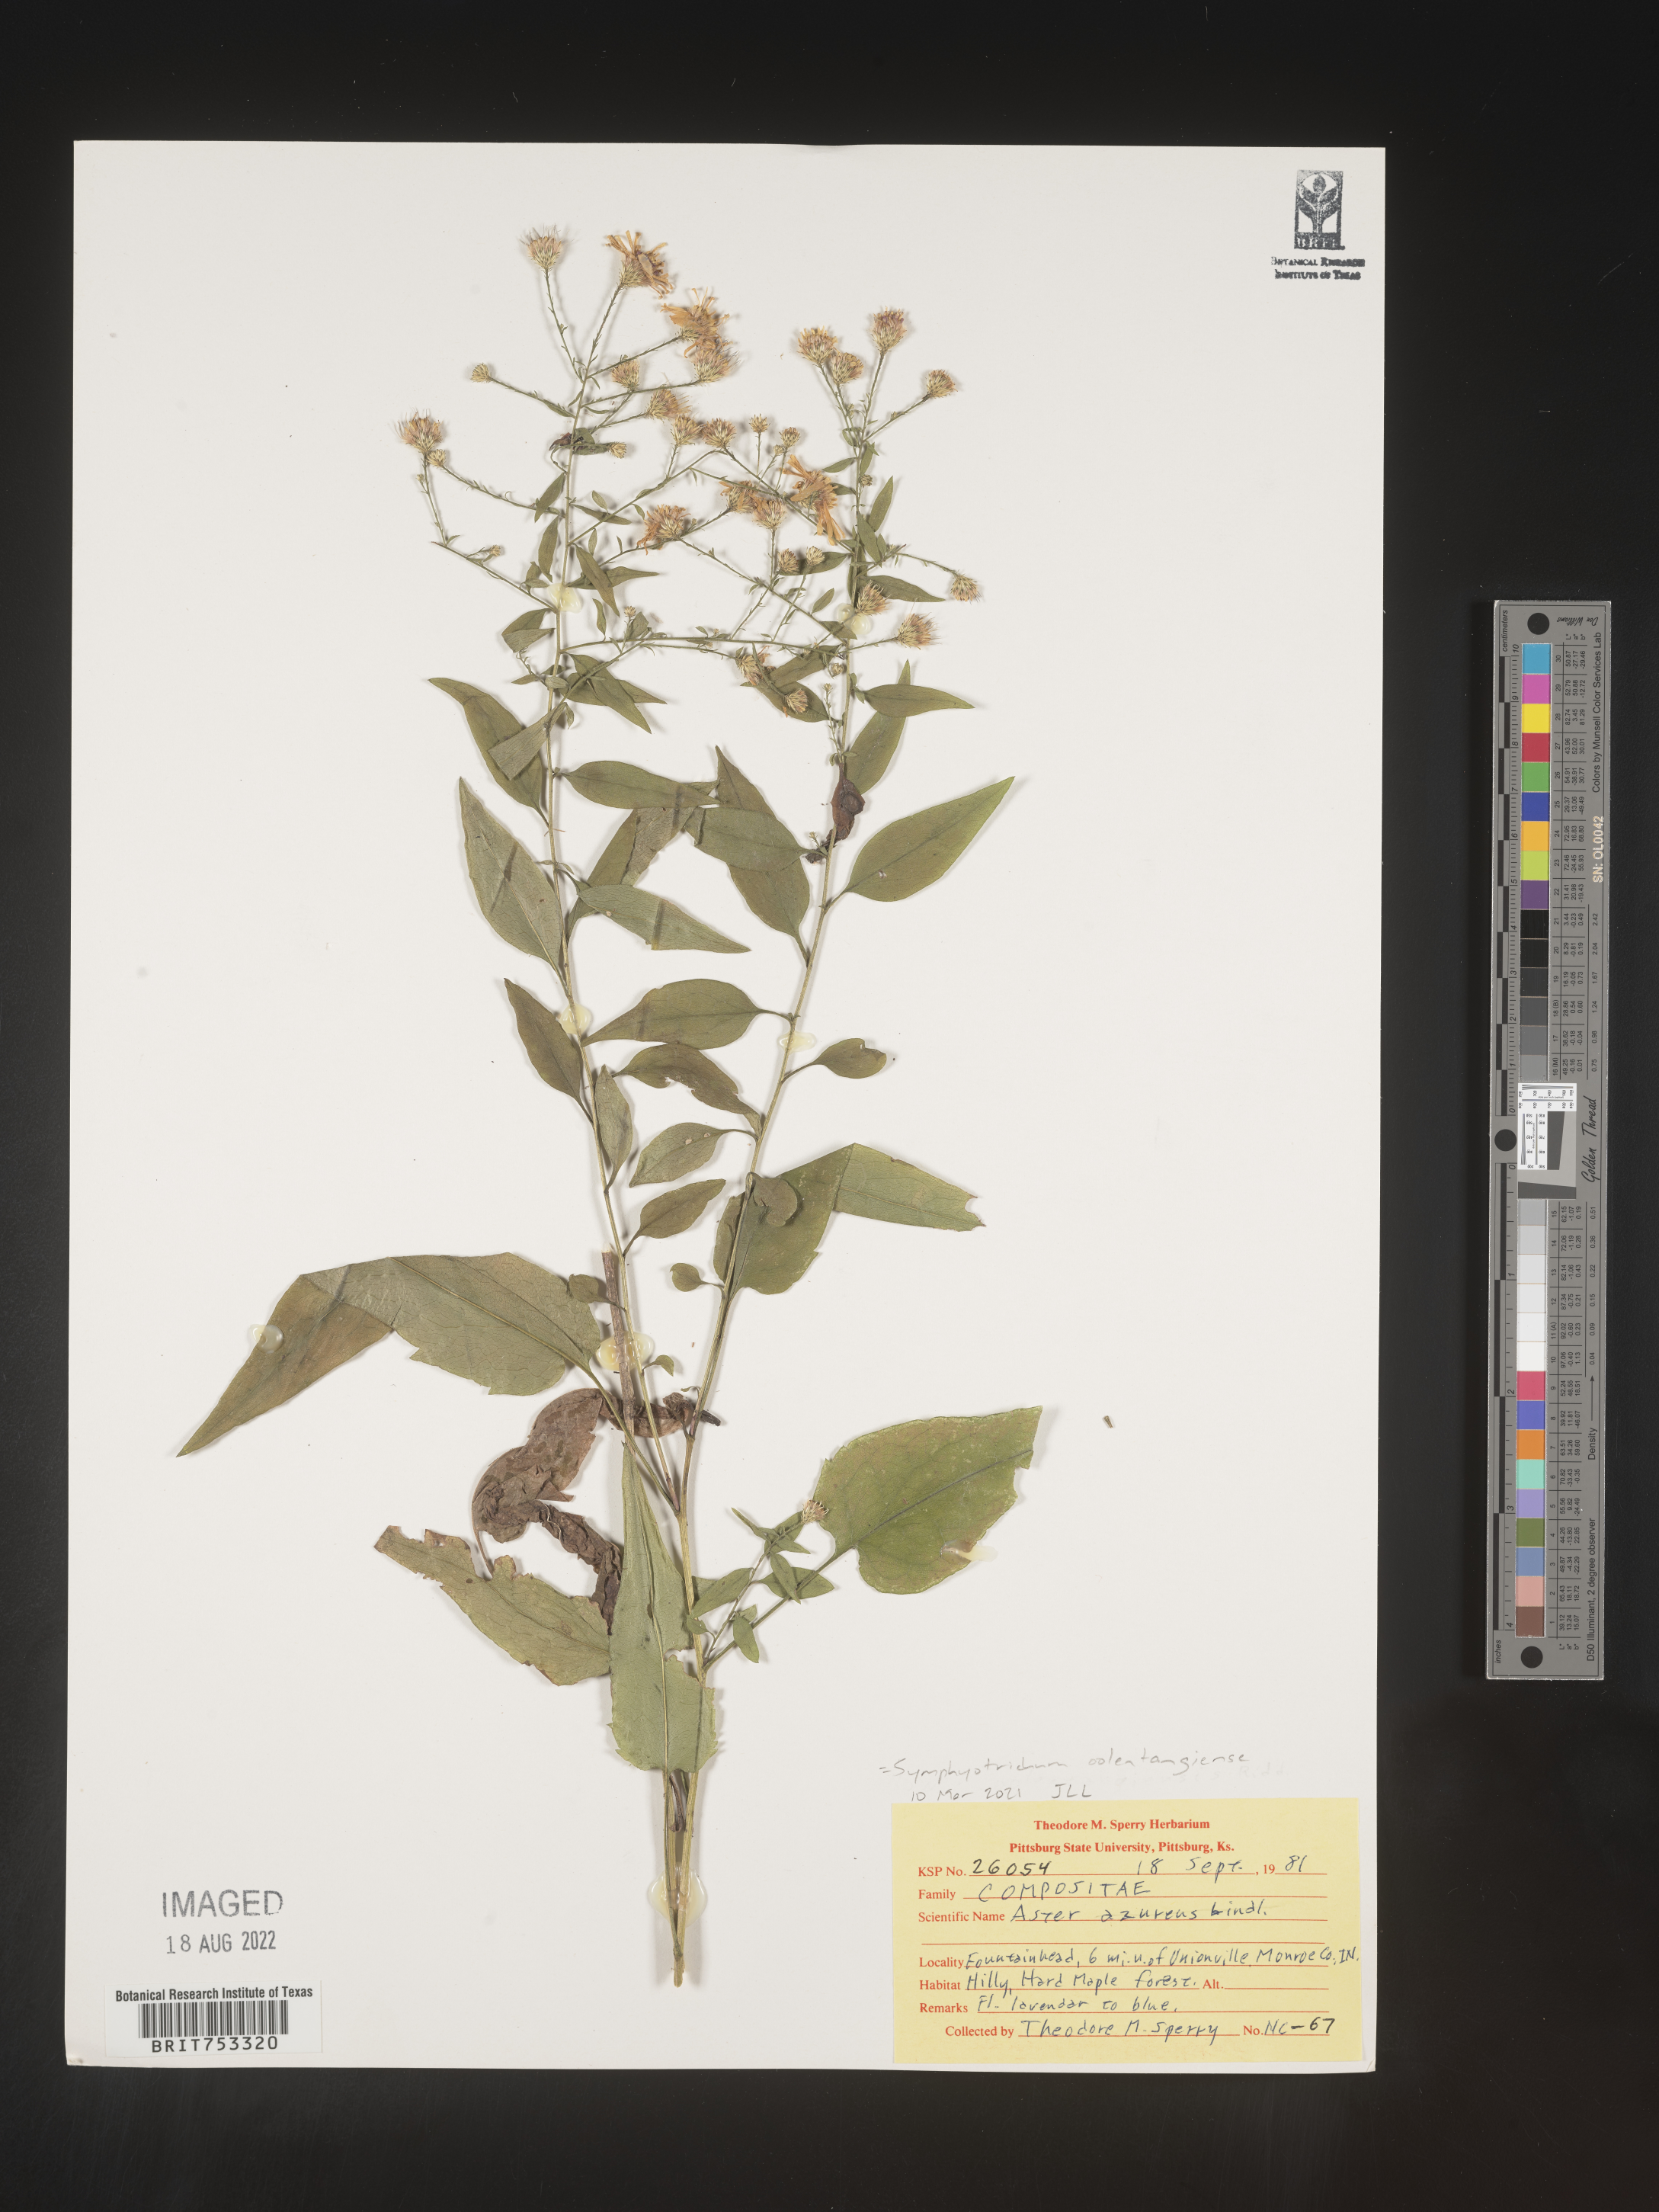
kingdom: Plantae
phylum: Tracheophyta
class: Magnoliopsida
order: Asterales
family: Asteraceae
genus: Symphyotrichum
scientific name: Symphyotrichum oolentangiense
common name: Azure aster
